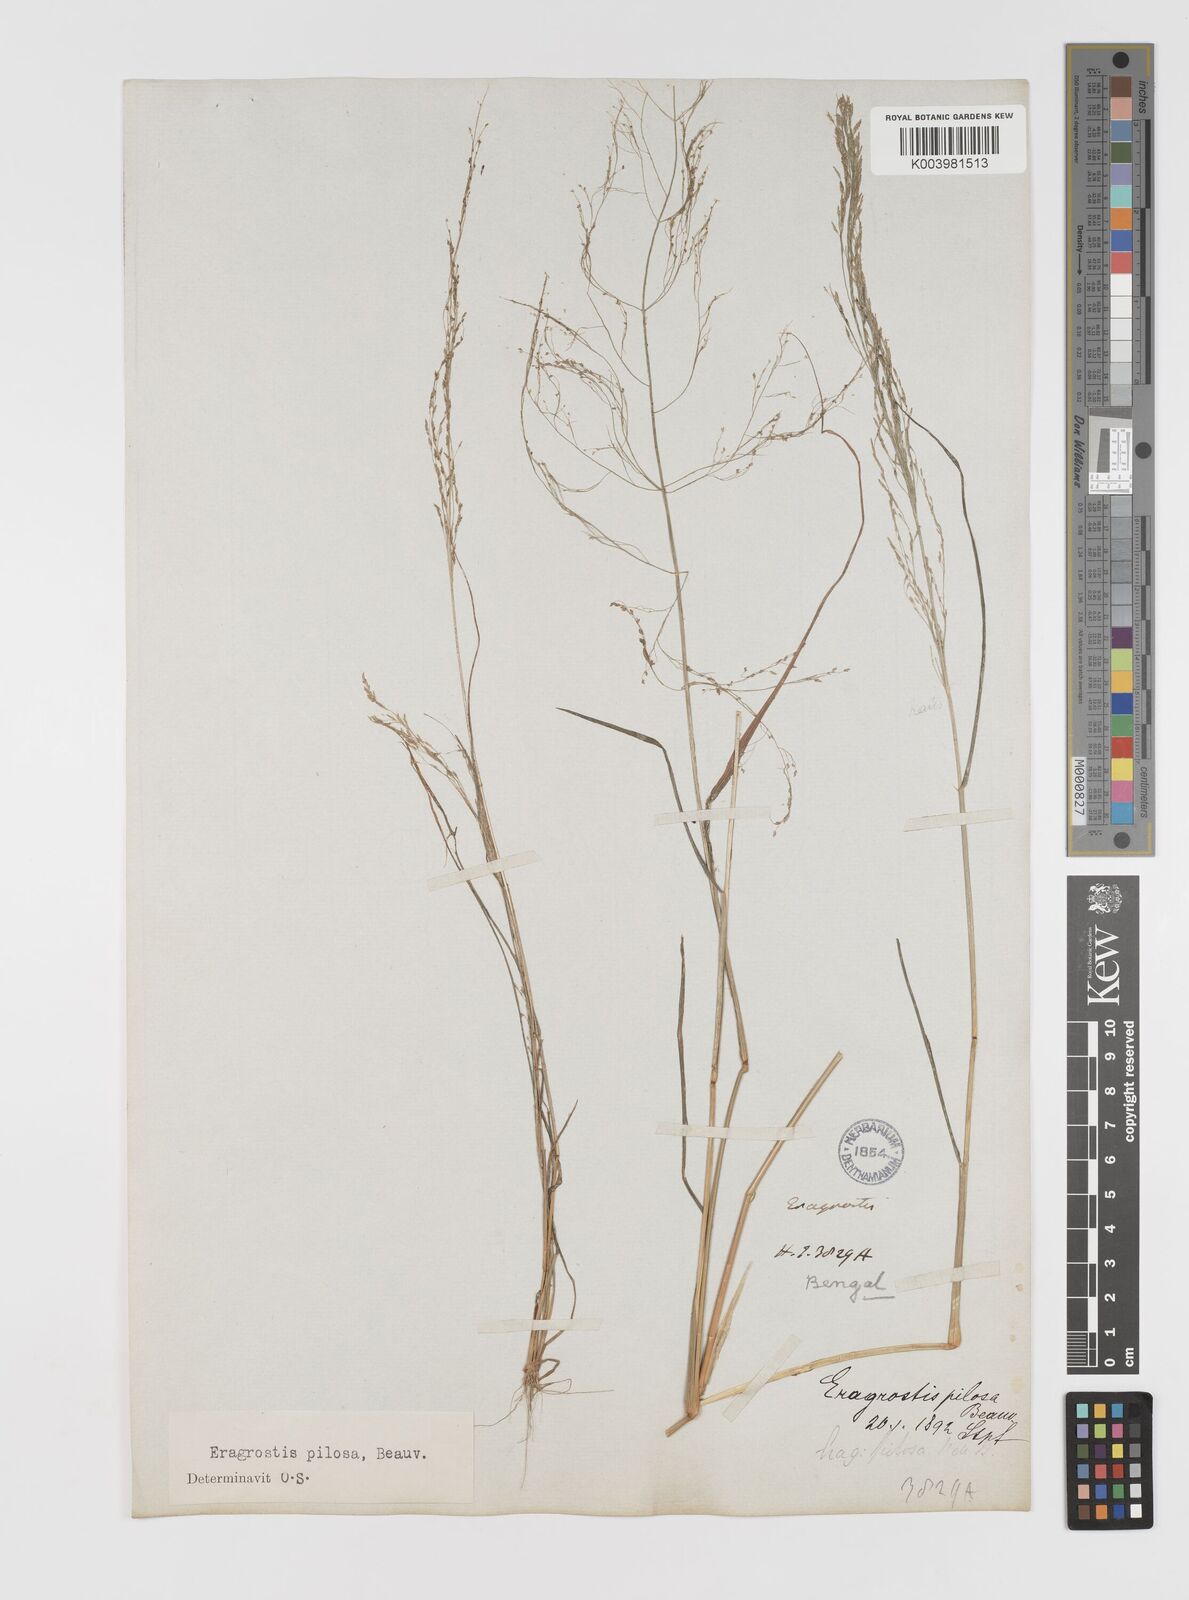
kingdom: Plantae
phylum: Tracheophyta
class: Liliopsida
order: Poales
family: Poaceae
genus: Eragrostis
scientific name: Eragrostis pilosa
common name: Indian lovegrass
